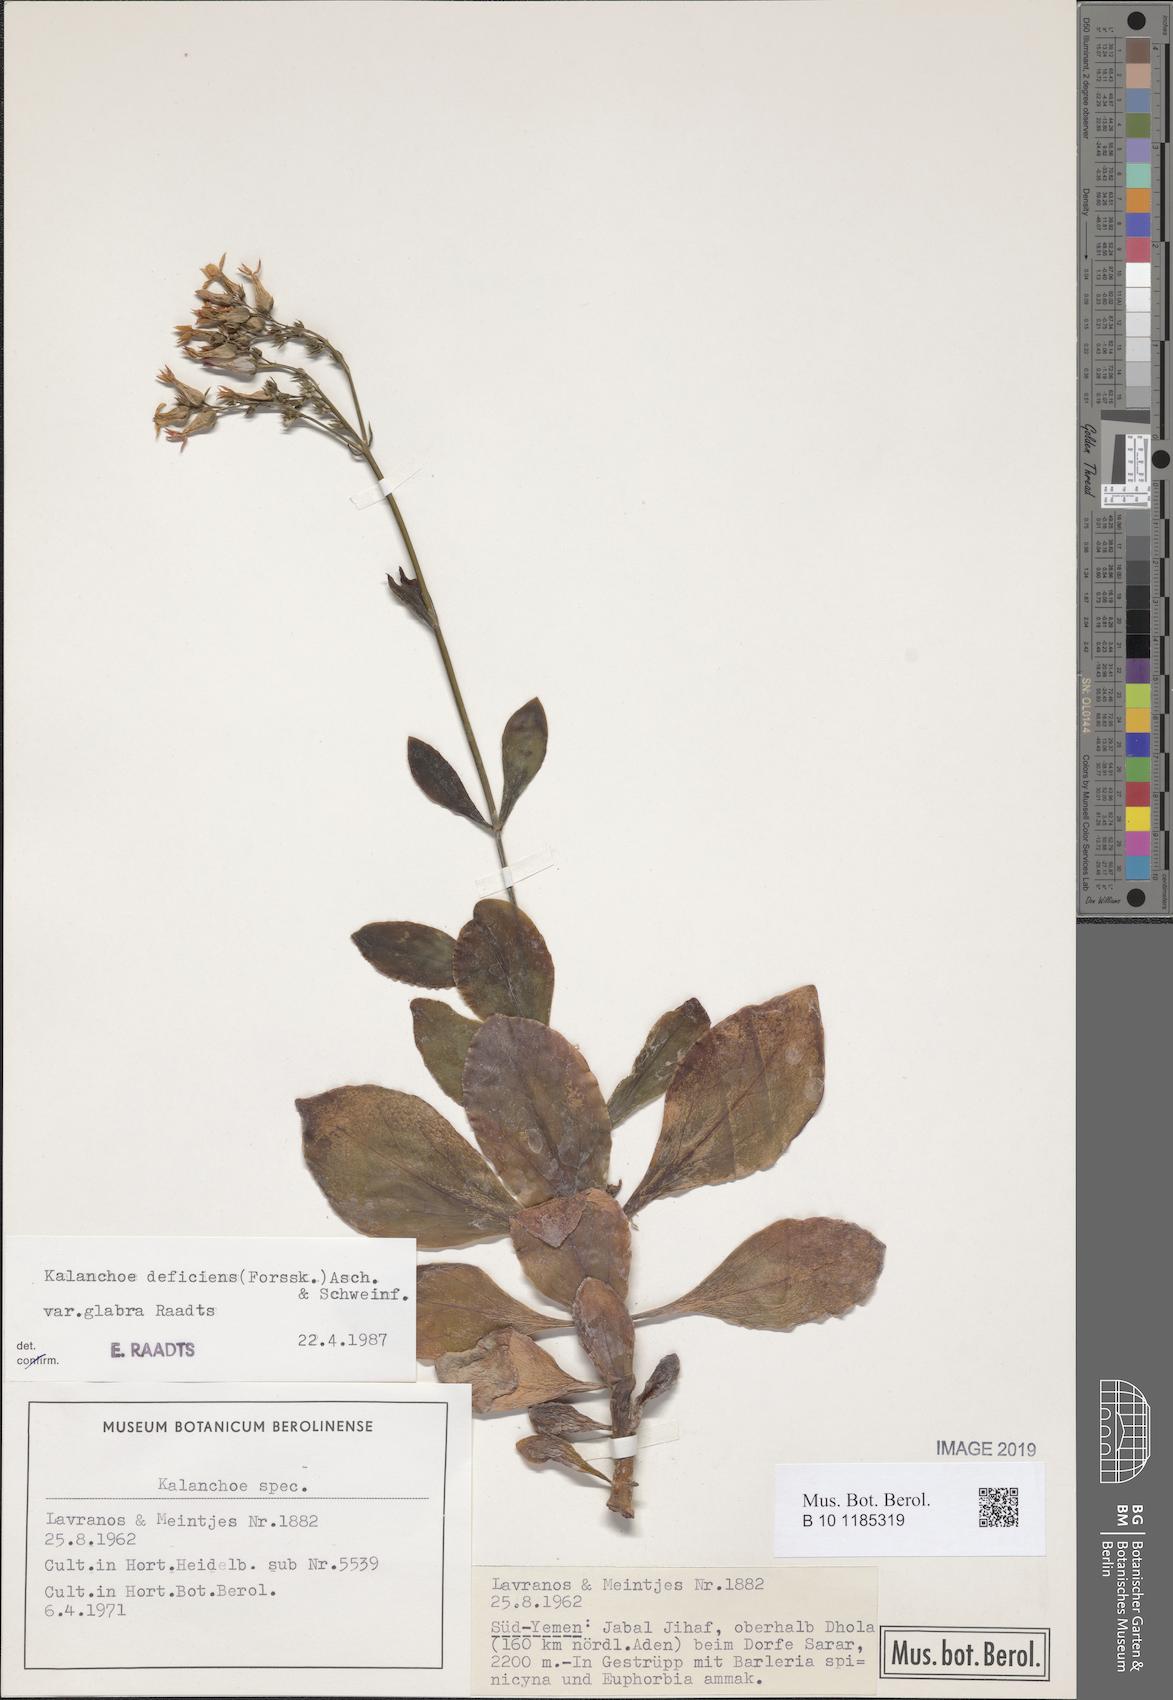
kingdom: Plantae
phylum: Tracheophyta
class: Magnoliopsida
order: Saxifragales
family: Crassulaceae
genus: Kalanchoe
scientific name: Kalanchoe deficiens
